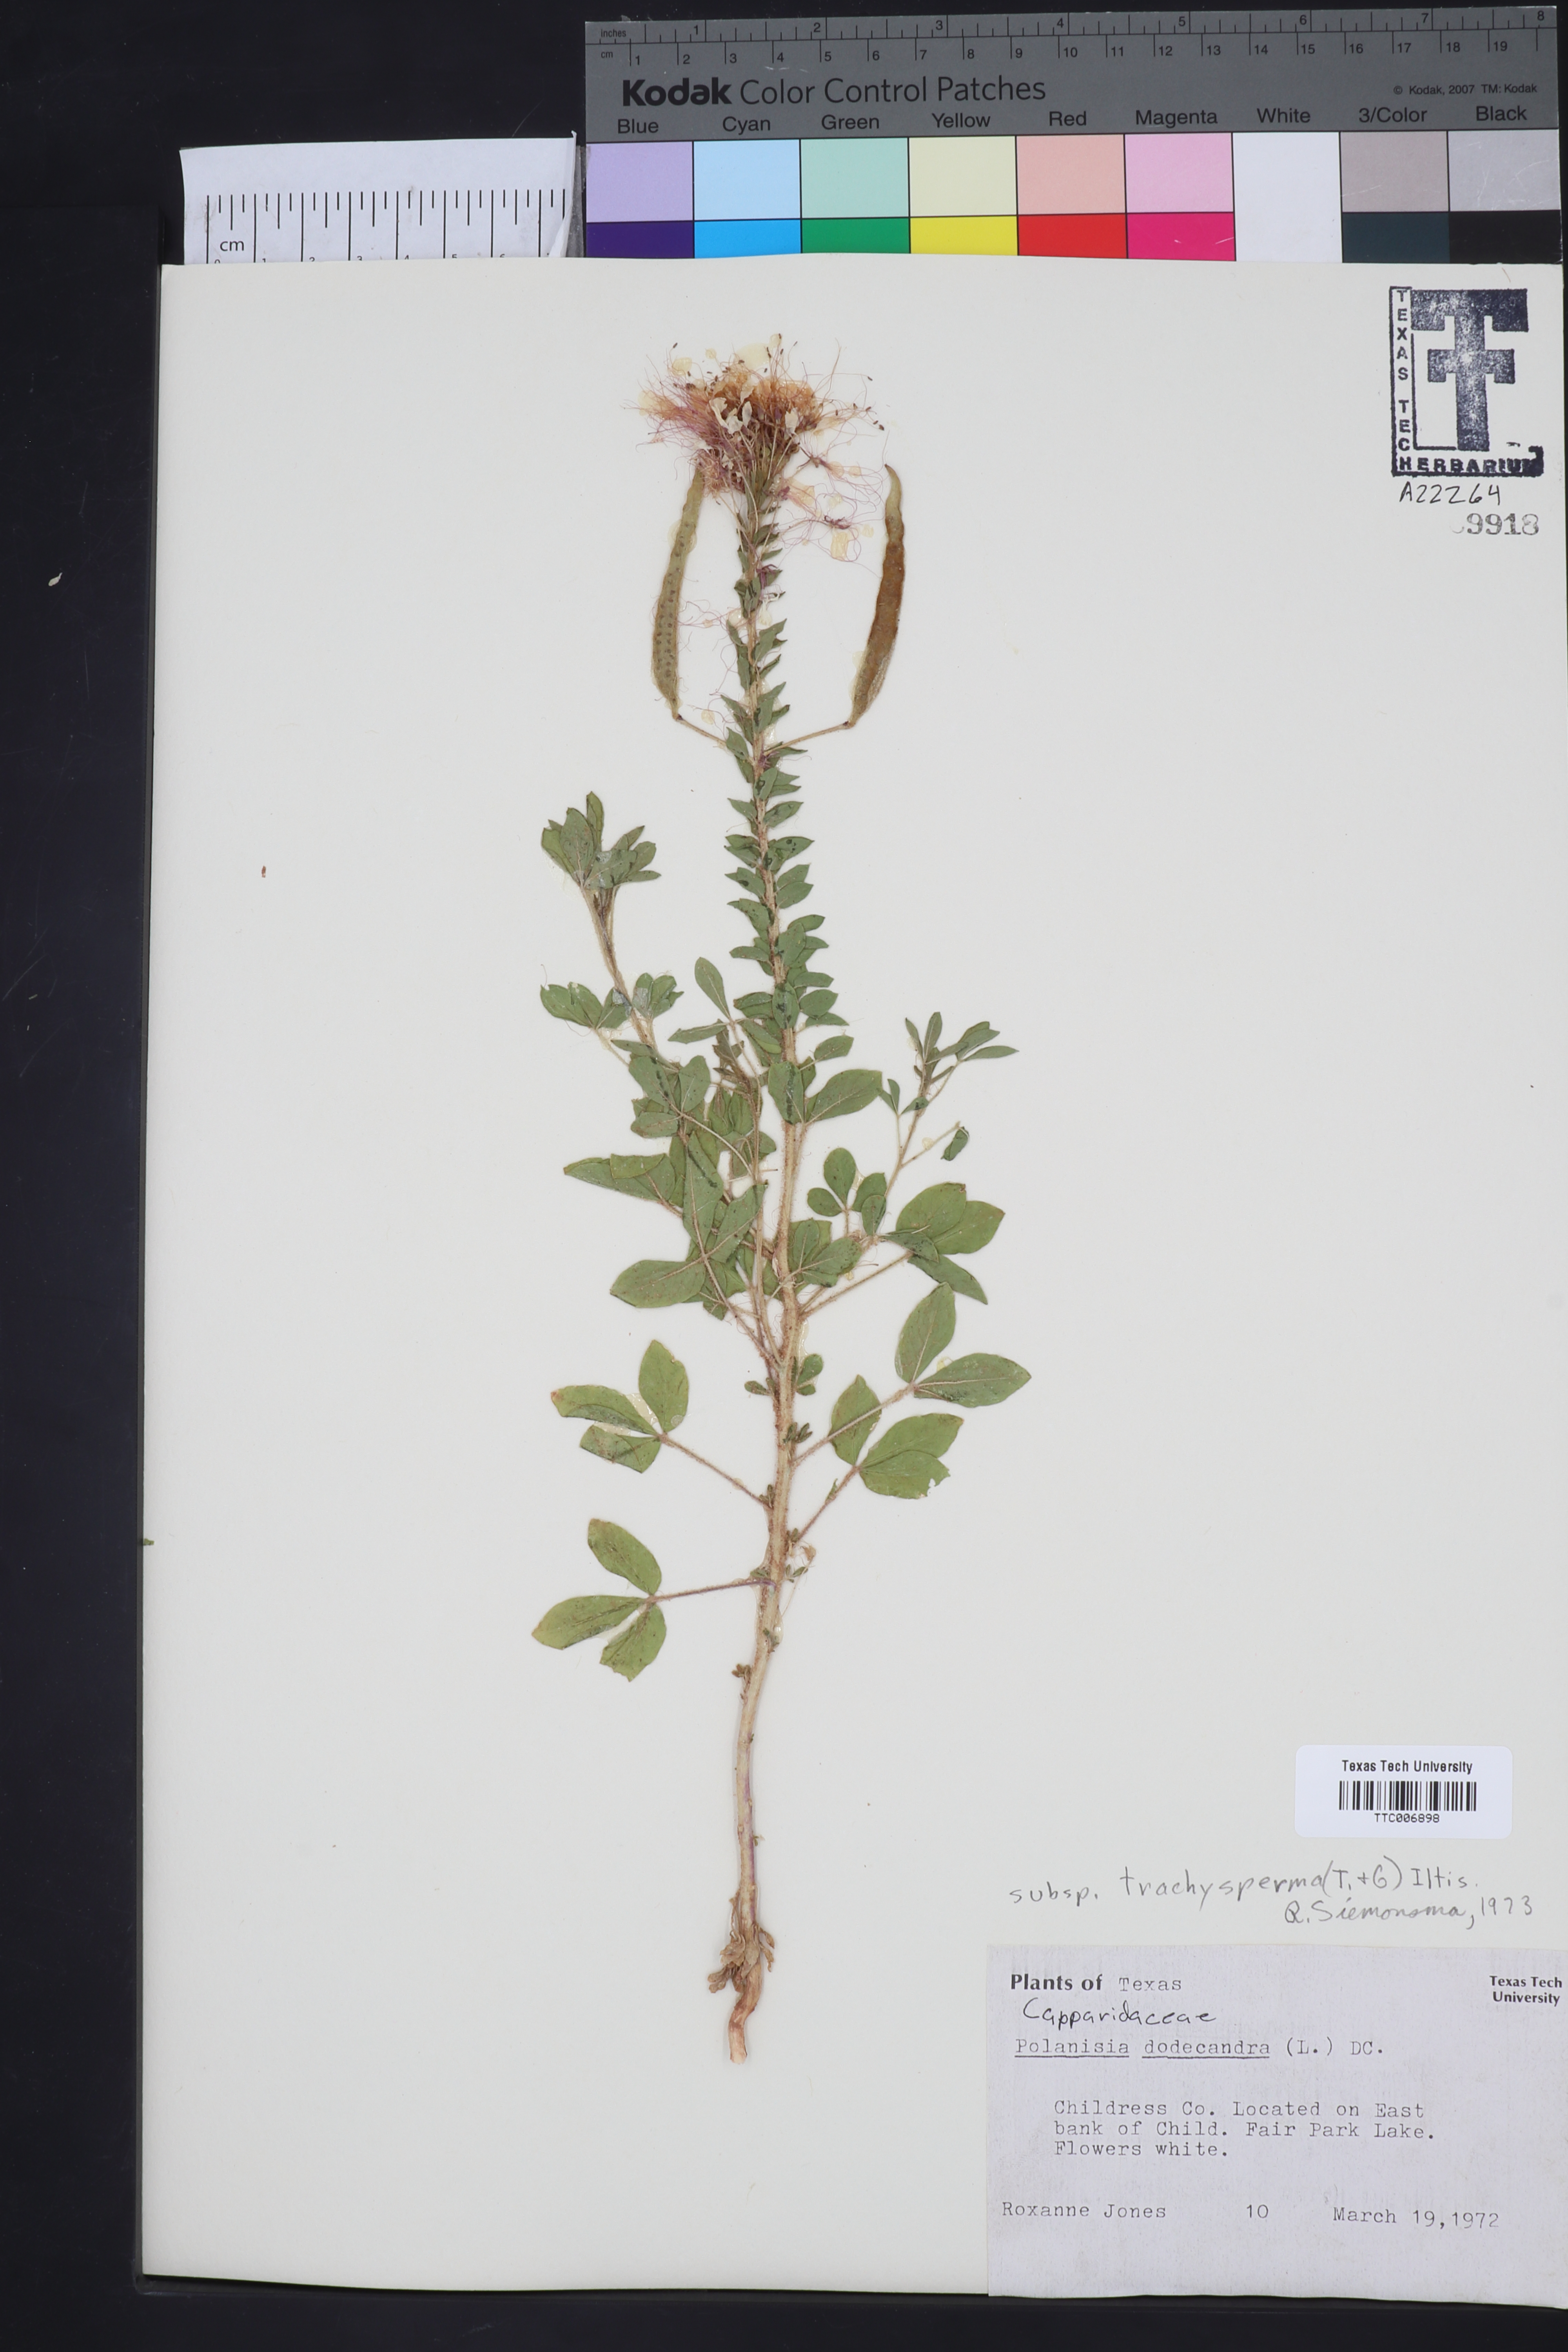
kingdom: Plantae
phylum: Tracheophyta
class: Magnoliopsida
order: Brassicales
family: Cleomaceae
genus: Polanisia
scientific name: Polanisia dodecandra
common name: Clammyweed
